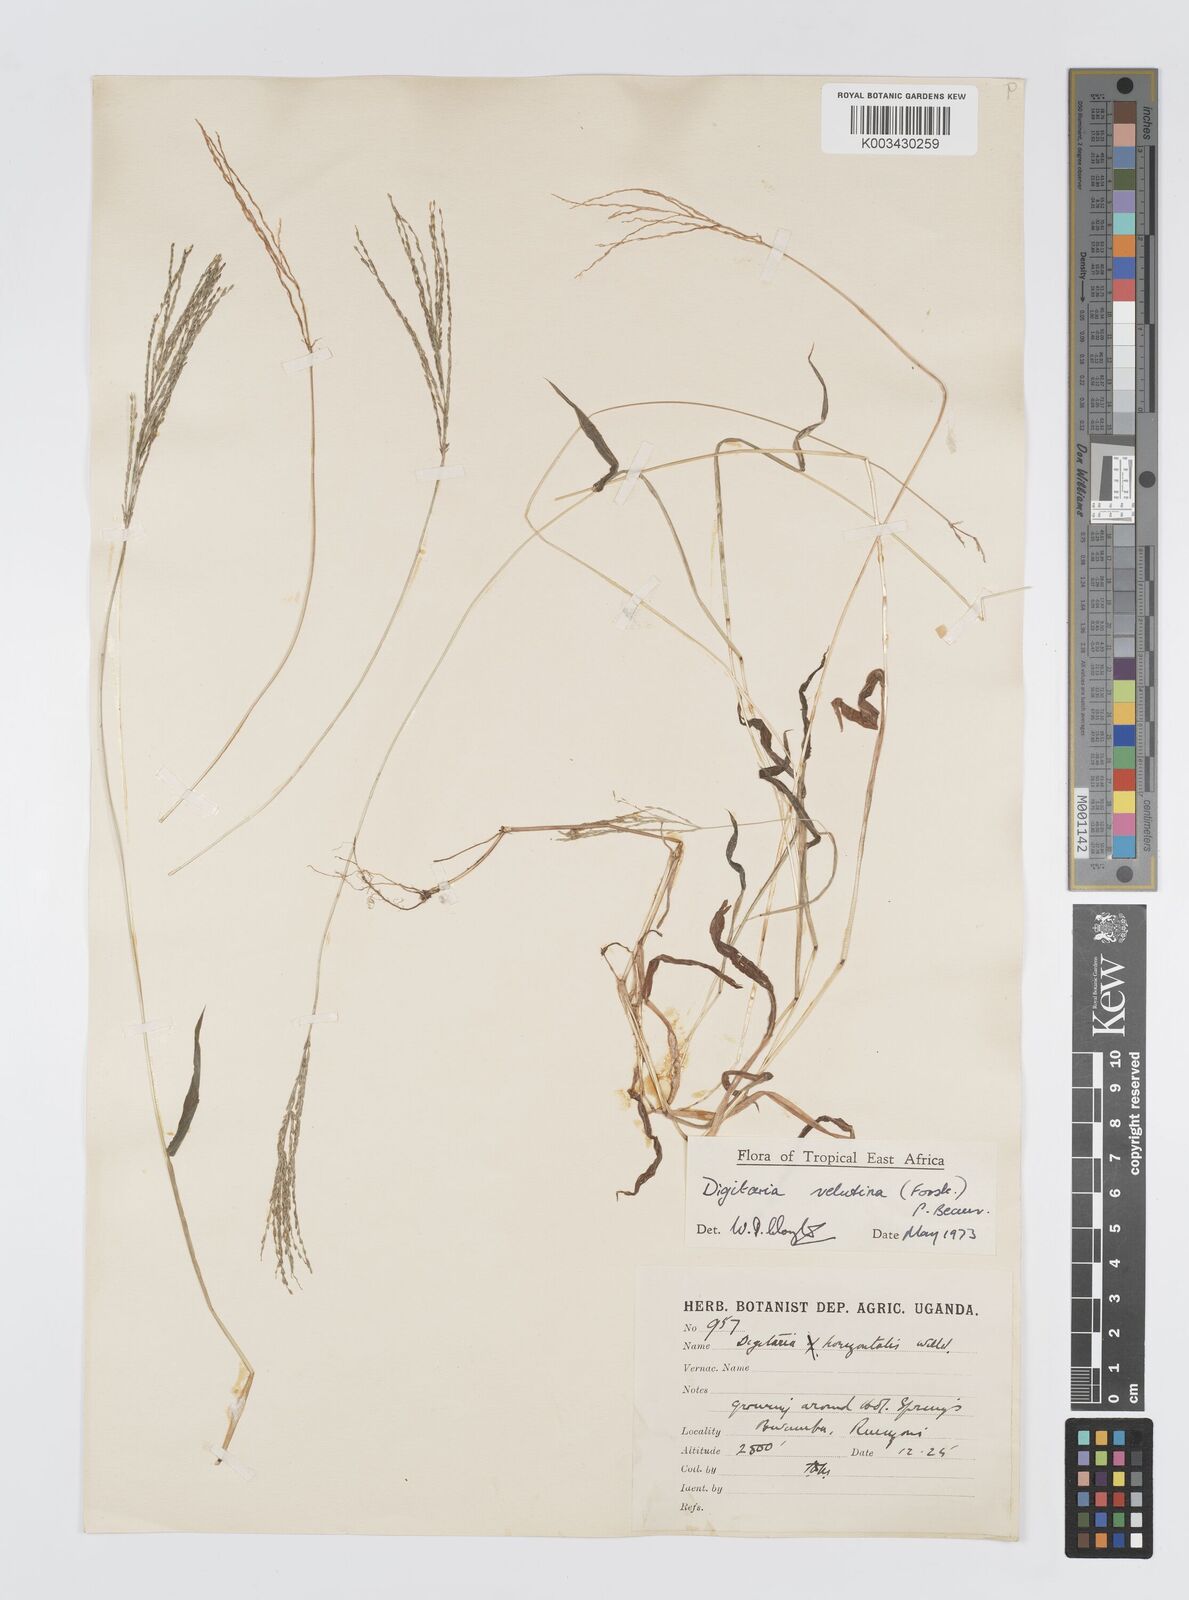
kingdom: Plantae
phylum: Tracheophyta
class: Liliopsida
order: Poales
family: Poaceae
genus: Digitaria
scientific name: Digitaria velutina
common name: Long-plume finger grass
